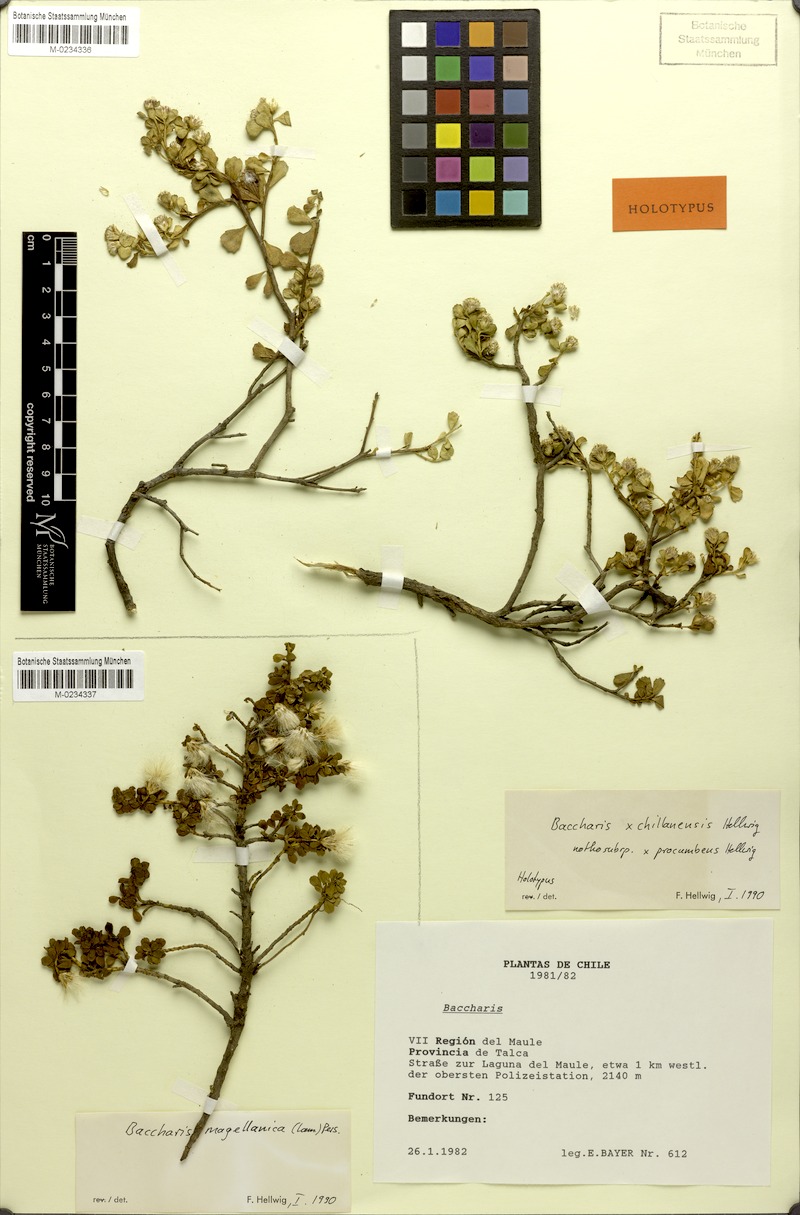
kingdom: Plantae
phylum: Tracheophyta
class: Magnoliopsida
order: Asterales
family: Asteraceae
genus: Baccharis
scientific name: Baccharis magellanica
